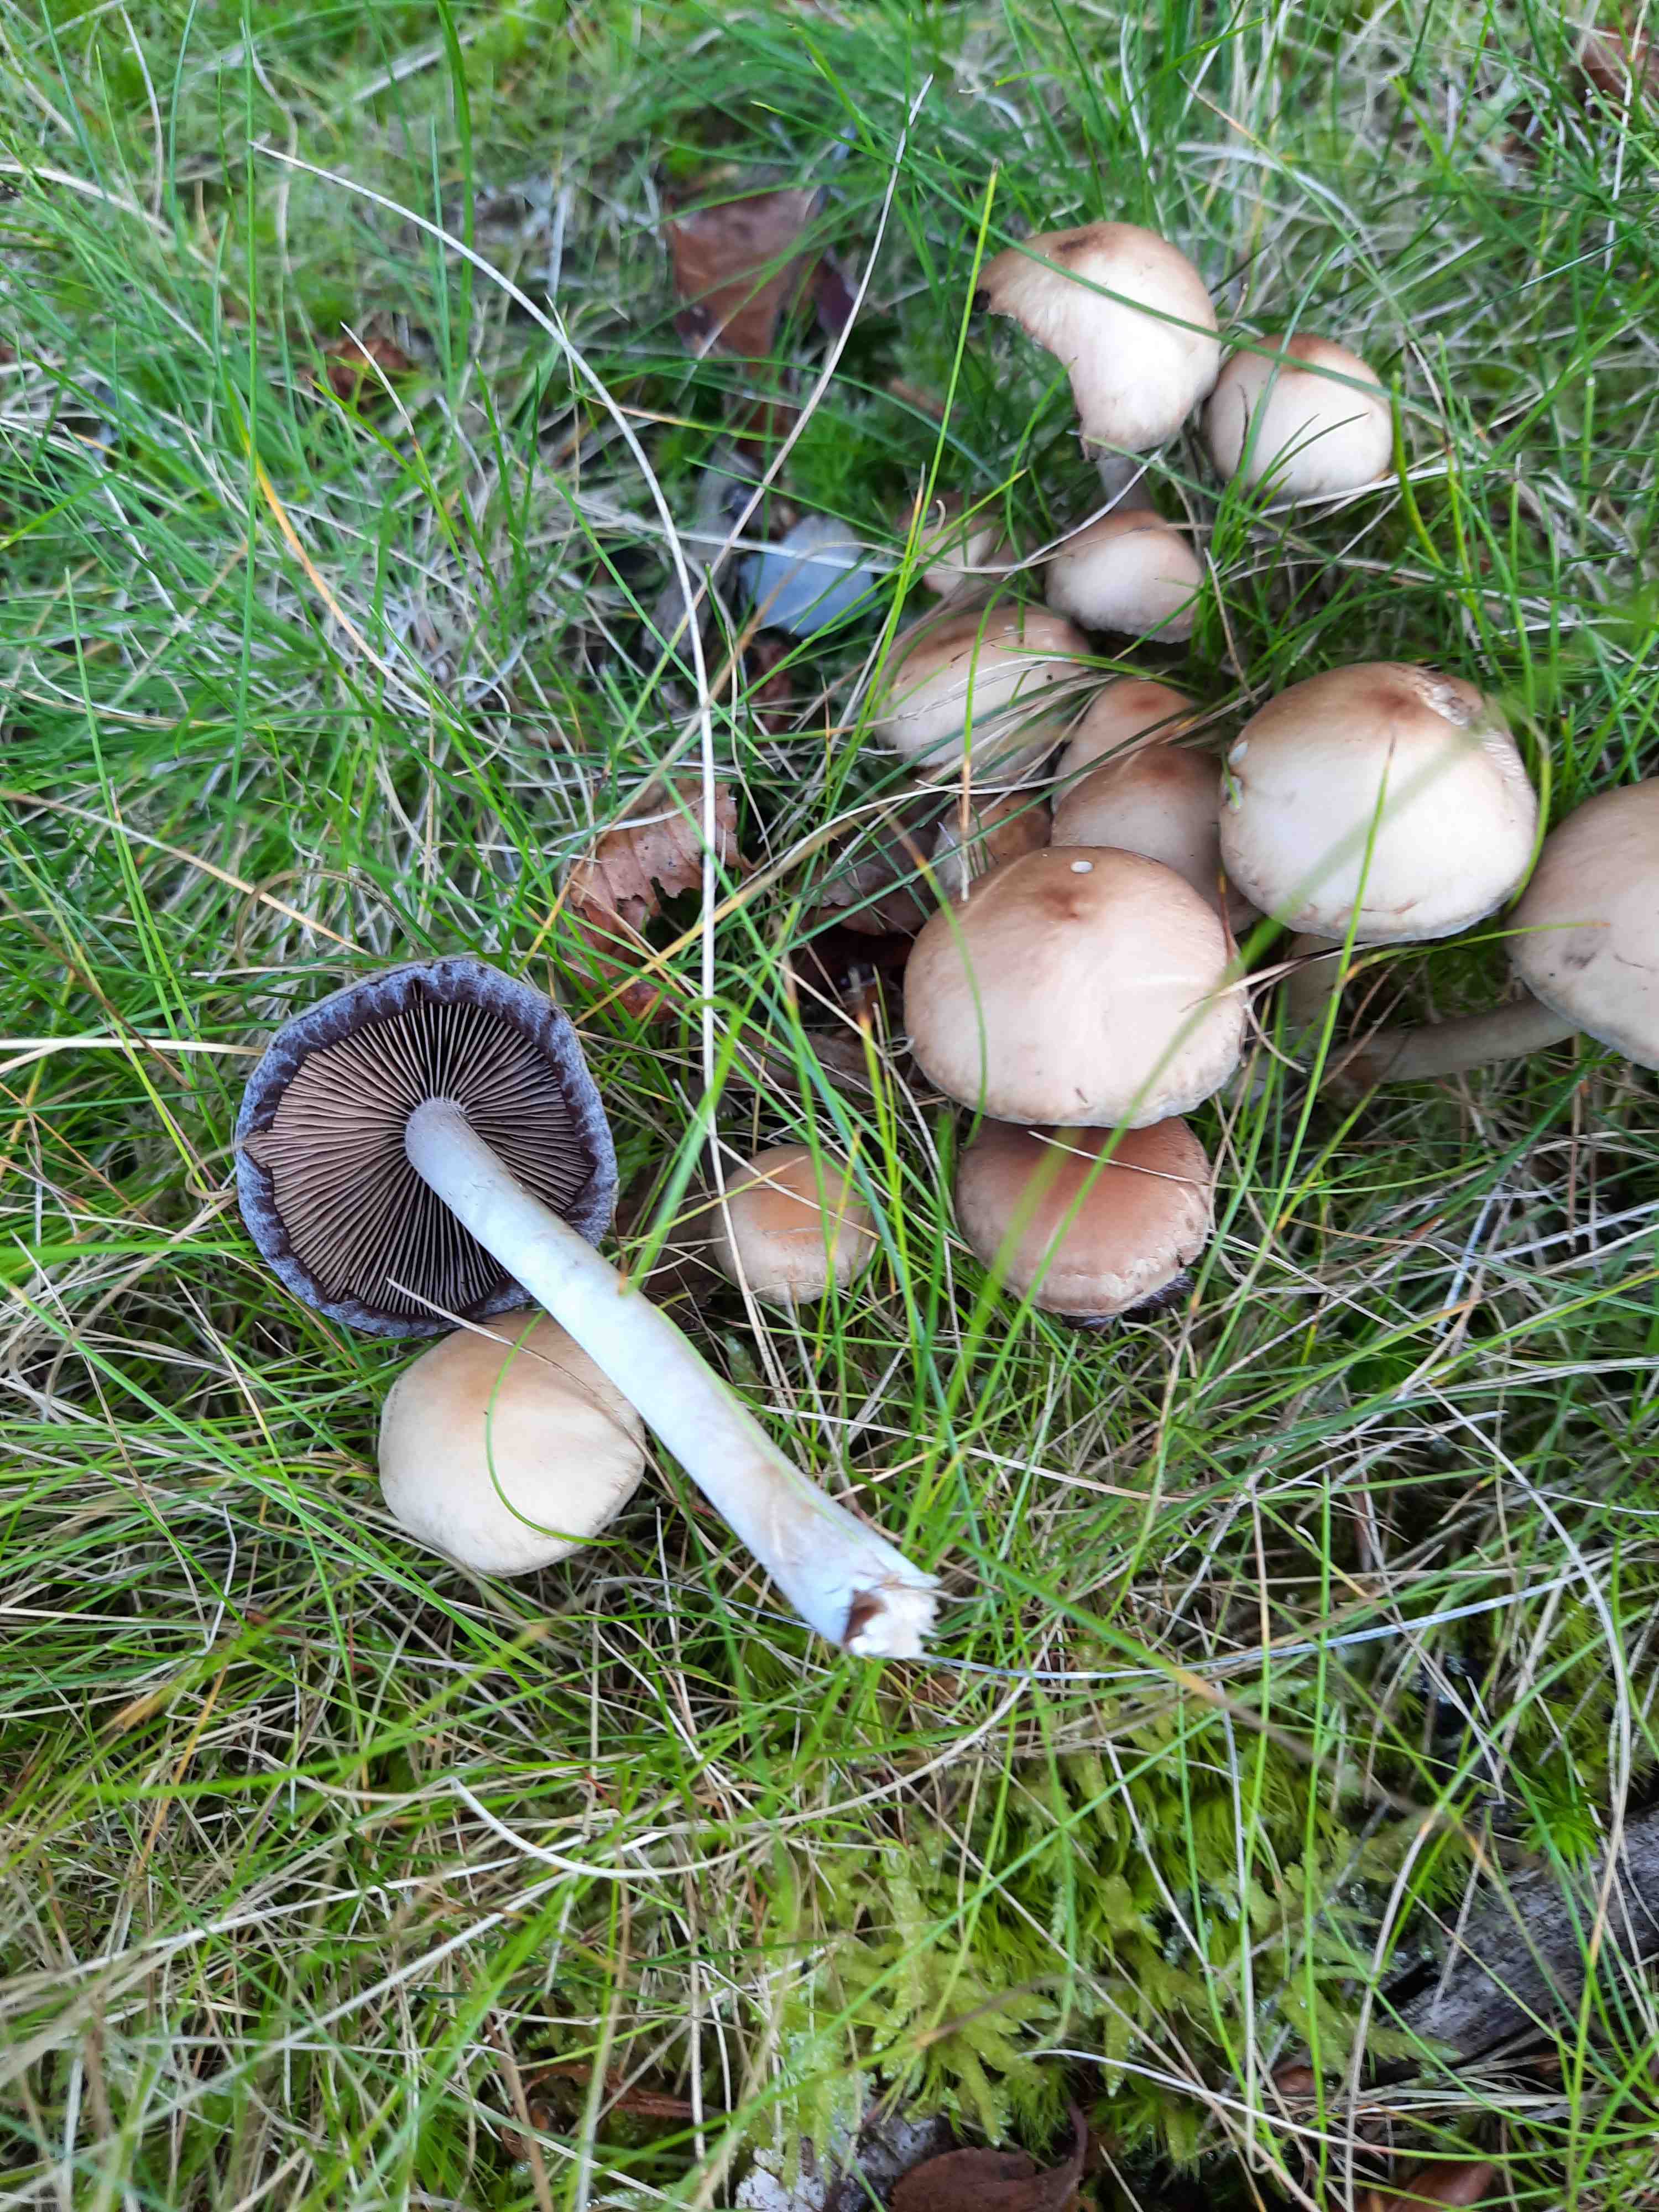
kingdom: Fungi
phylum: Basidiomycota
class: Agaricomycetes
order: Agaricales
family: Psathyrellaceae
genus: Psathyrella
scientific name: Psathyrella piluliformis
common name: lysstokket mørkhat
